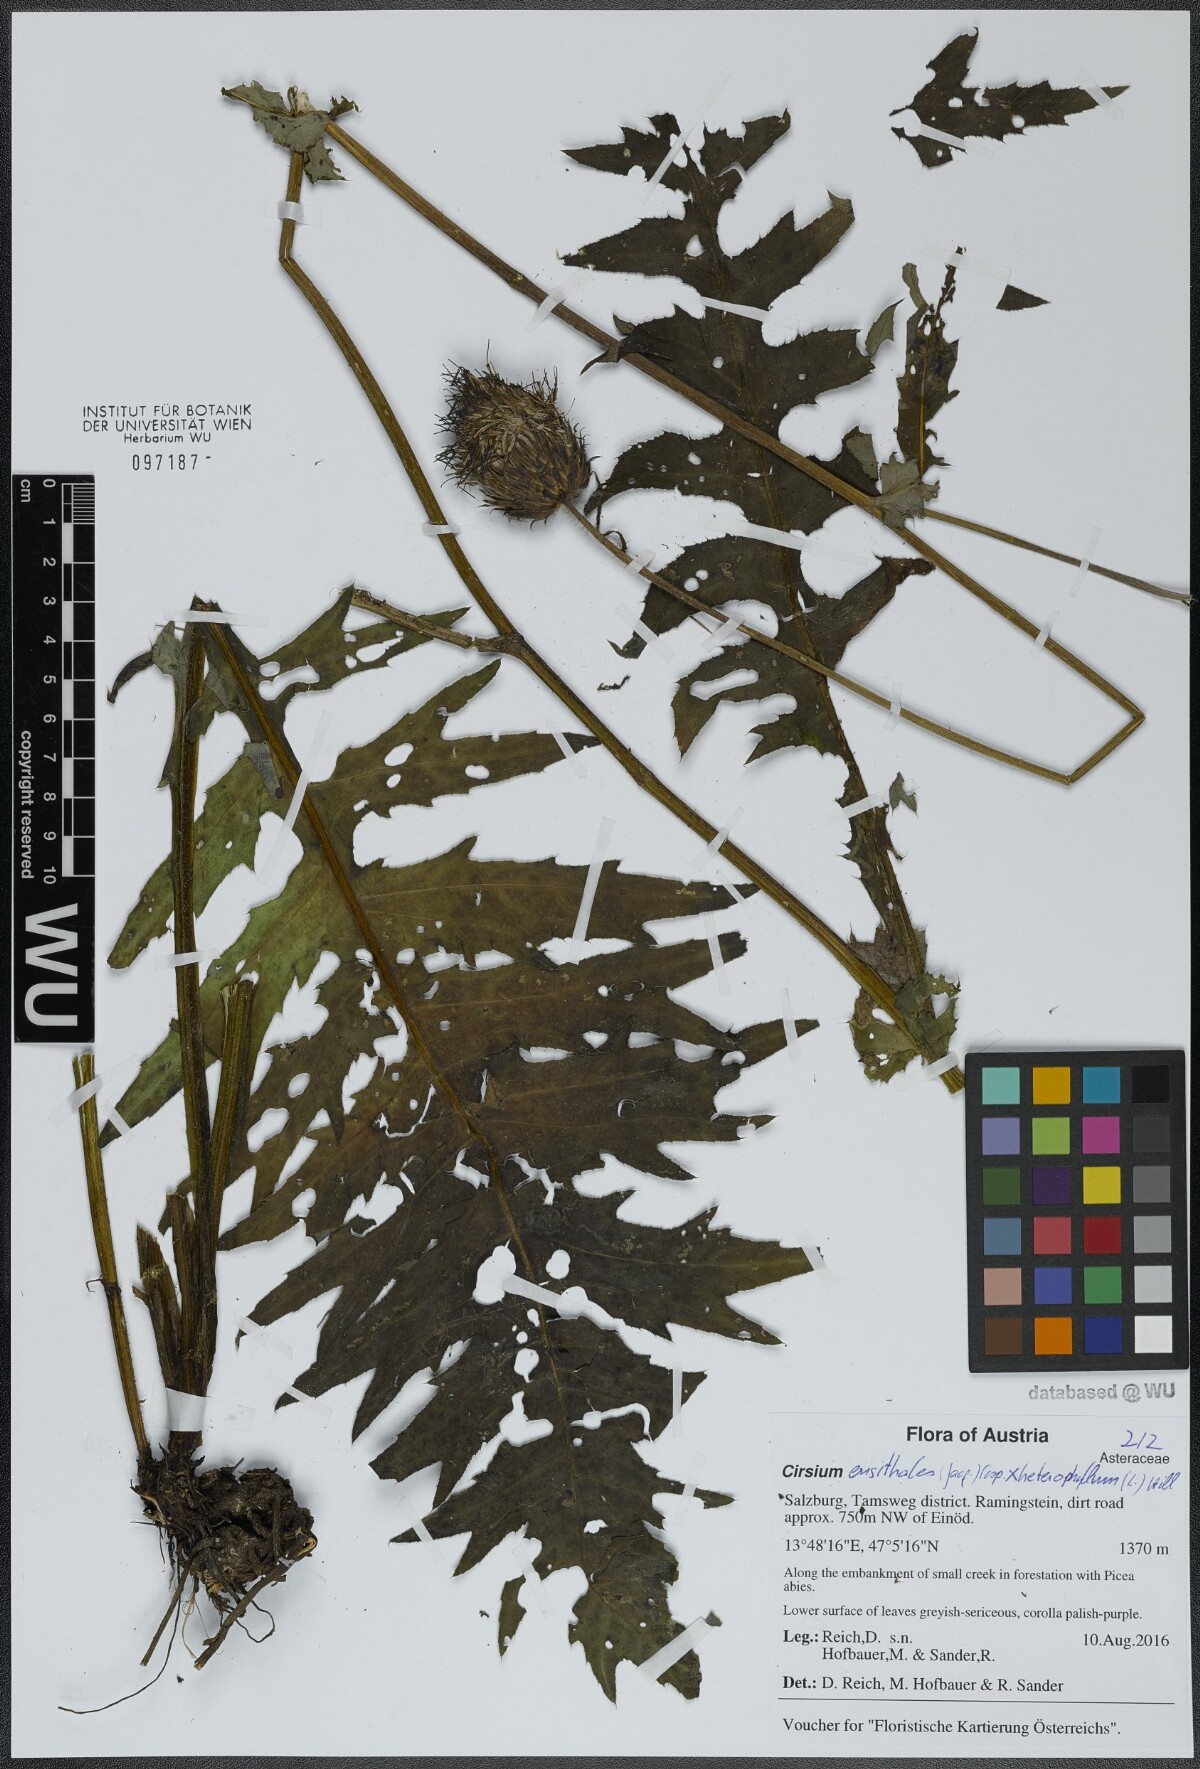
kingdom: Plantae
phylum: Tracheophyta
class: Magnoliopsida
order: Asterales
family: Asteraceae
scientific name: Asteraceae
